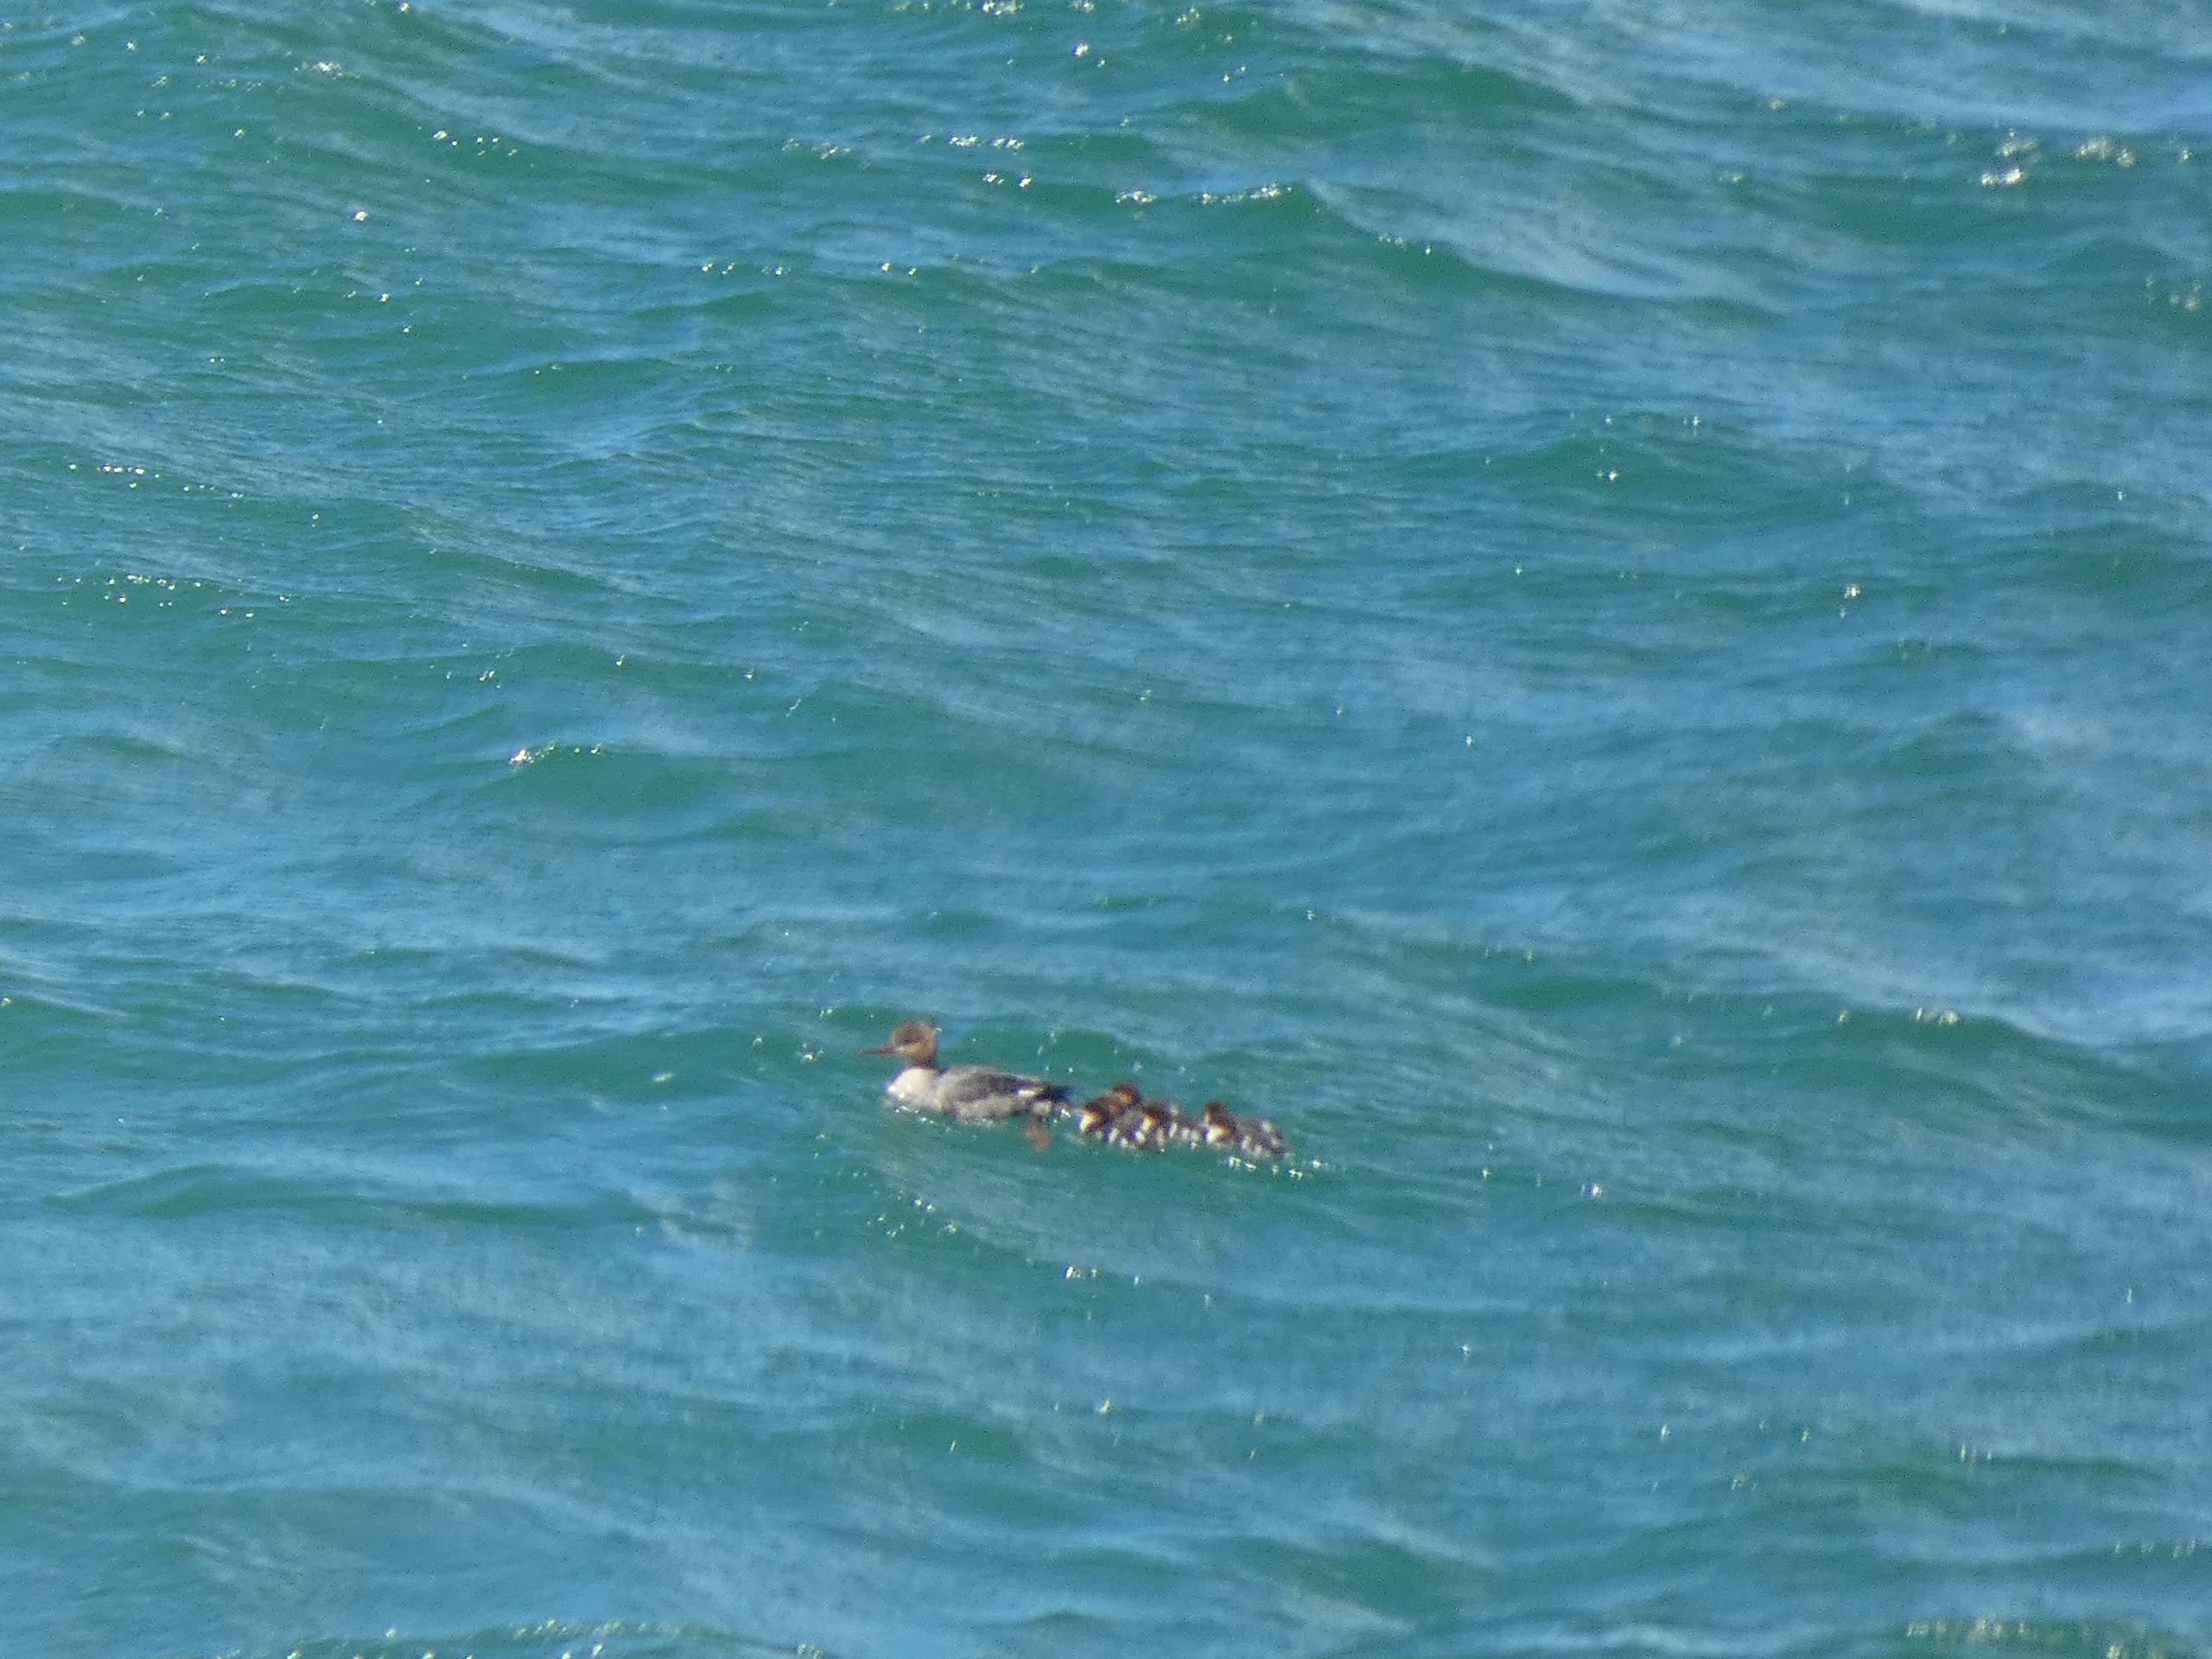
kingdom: Animalia
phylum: Chordata
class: Aves
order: Anseriformes
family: Anatidae
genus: Mergus
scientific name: Mergus serrator
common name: Toppet skallesluger
